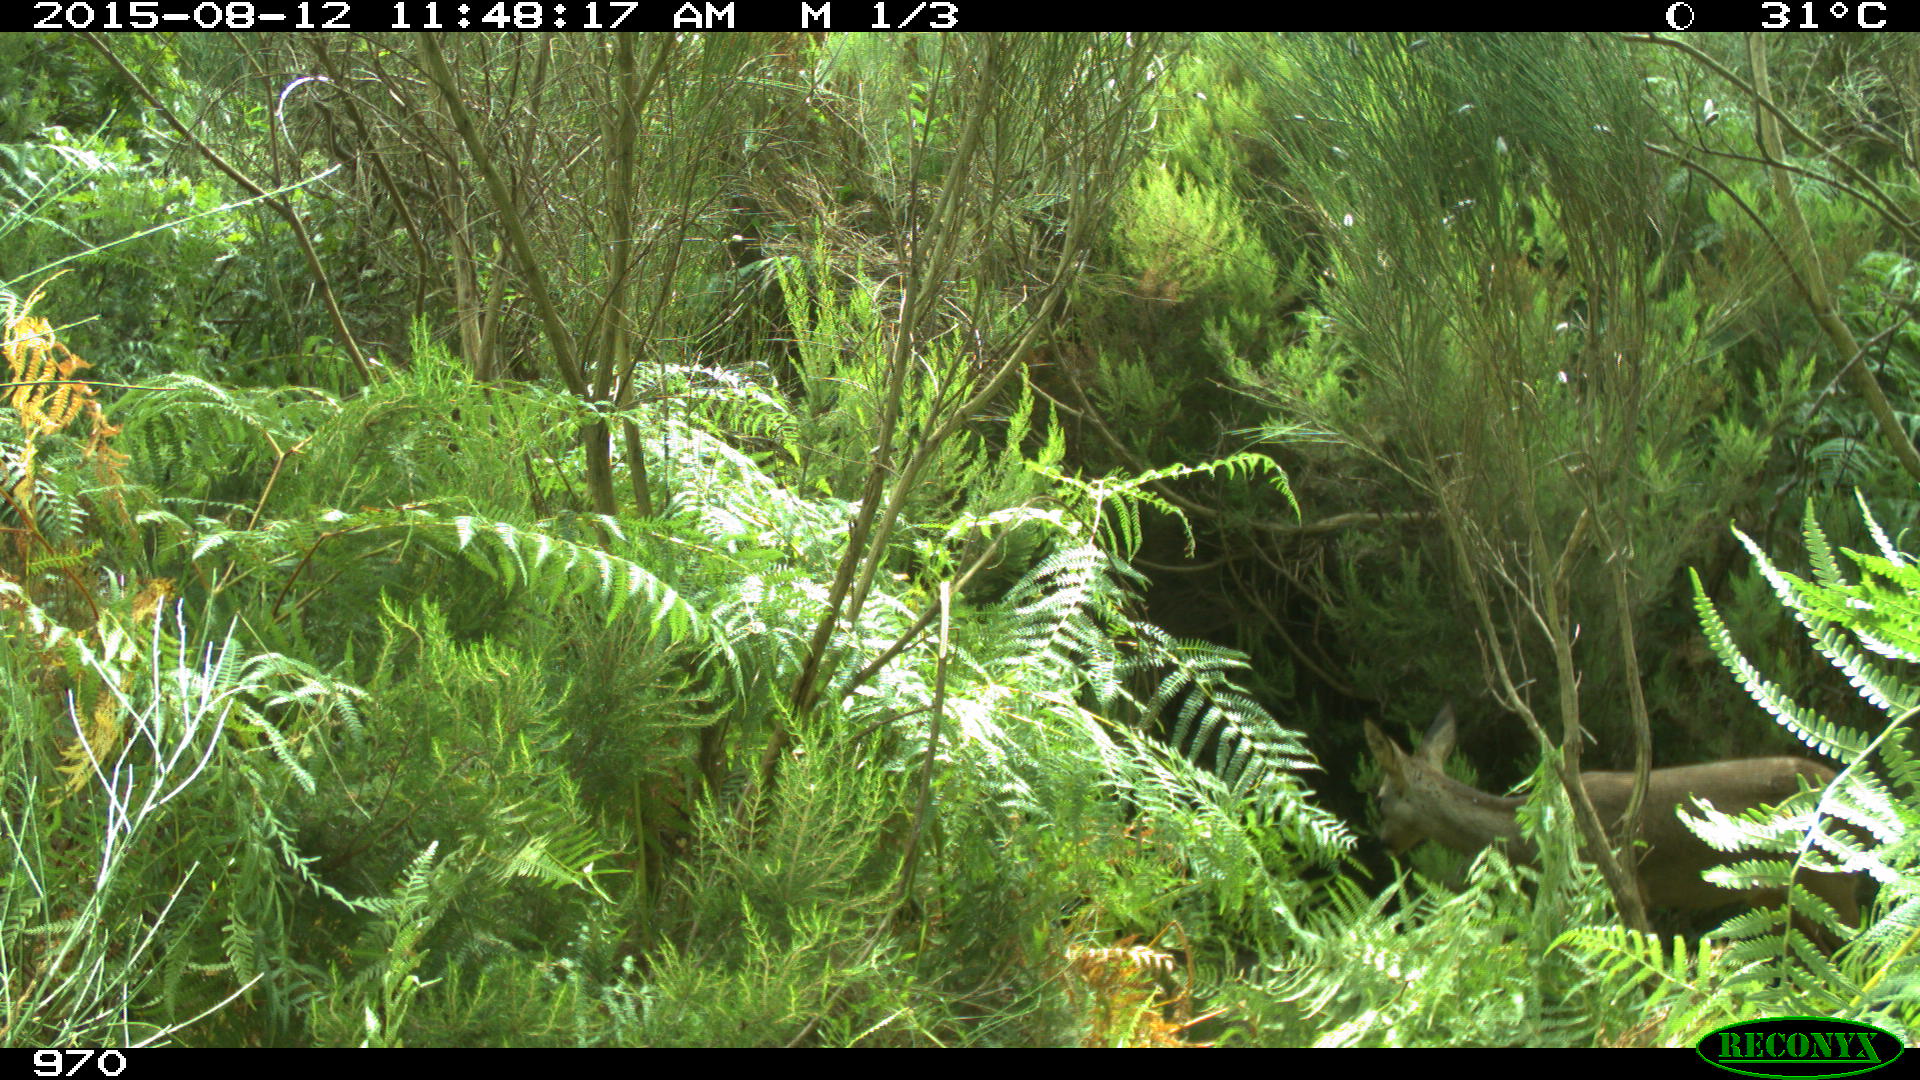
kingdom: Animalia
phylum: Chordata
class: Mammalia
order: Artiodactyla
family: Cervidae
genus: Capreolus
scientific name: Capreolus capreolus
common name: Western roe deer
